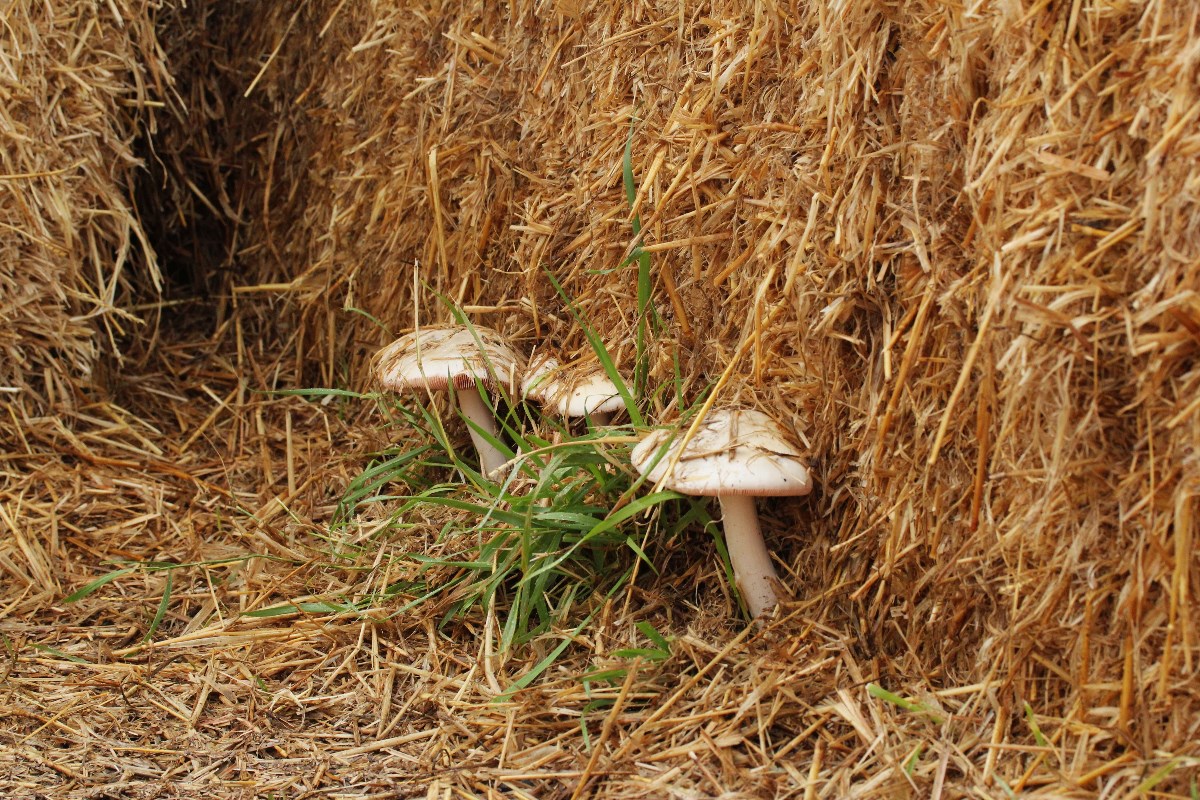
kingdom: Fungi
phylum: Basidiomycota
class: Agaricomycetes
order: Agaricales
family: Pluteaceae
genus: Volvopluteus
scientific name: Volvopluteus gloiocephalus
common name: høj posesvamp
